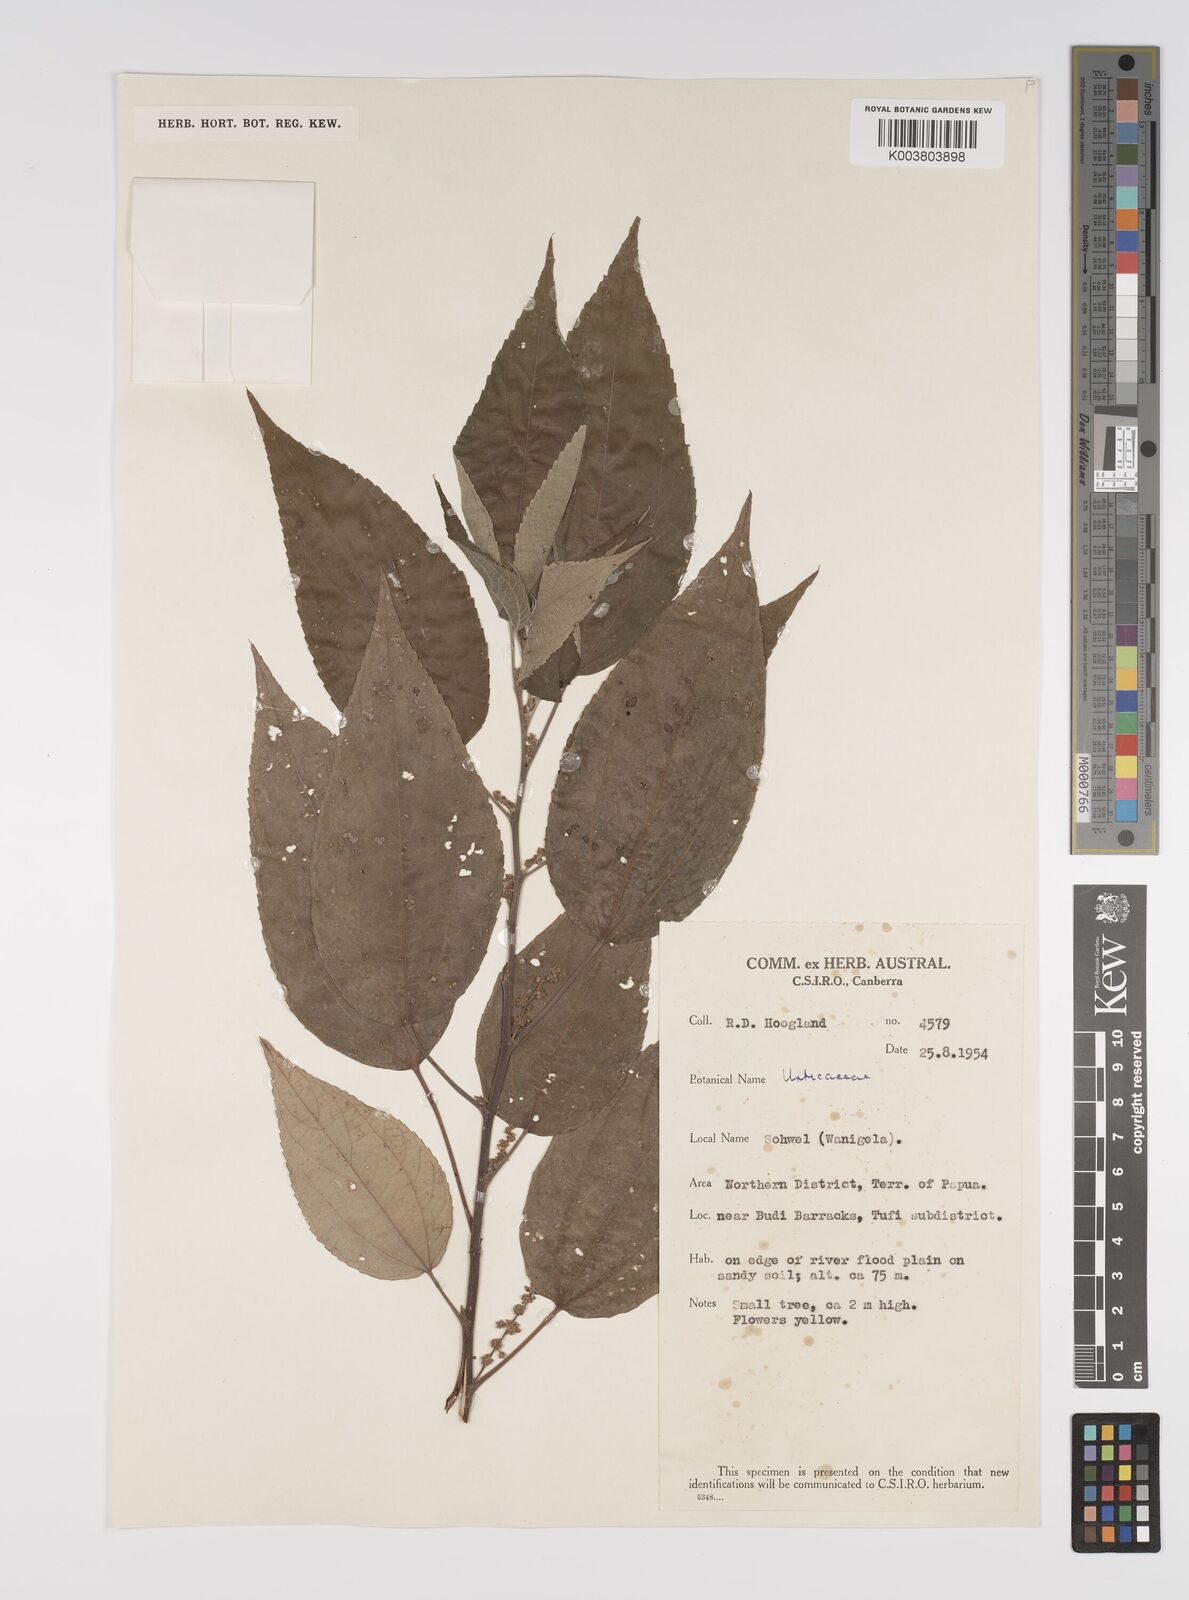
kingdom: Plantae
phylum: Tracheophyta
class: Magnoliopsida
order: Rosales
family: Urticaceae
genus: Pipturus
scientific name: Pipturus argenteus
